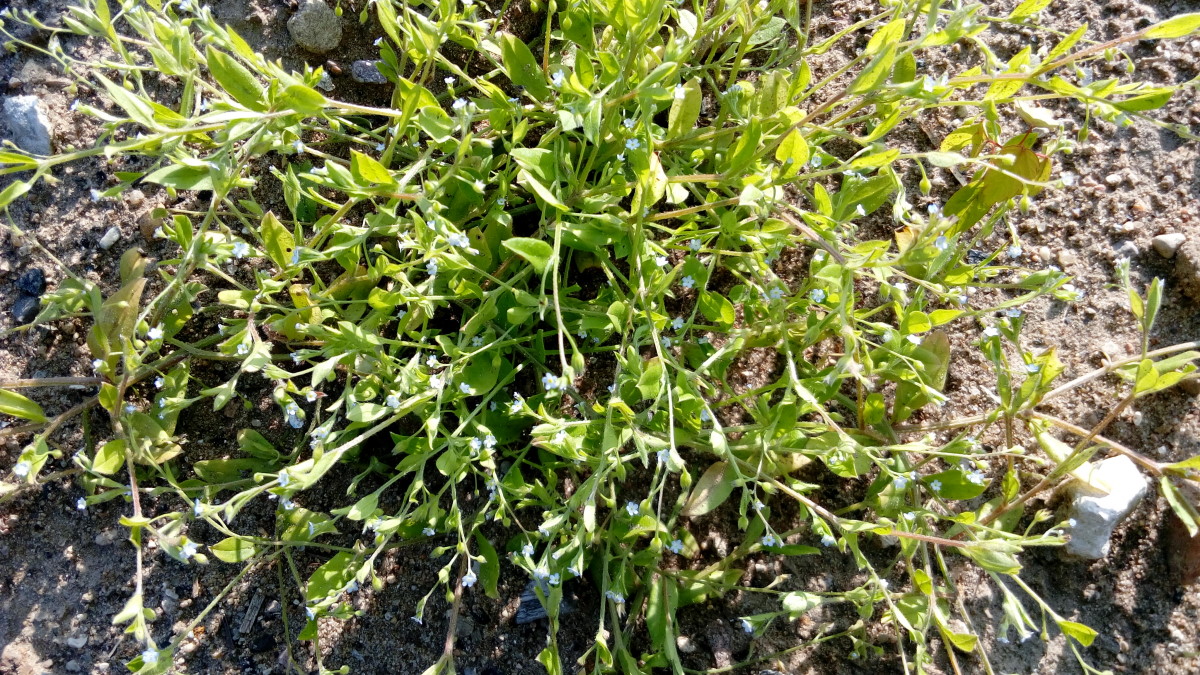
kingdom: Plantae
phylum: Tracheophyta
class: Magnoliopsida
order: Boraginales
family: Boraginaceae
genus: Myosotis
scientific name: Myosotis
